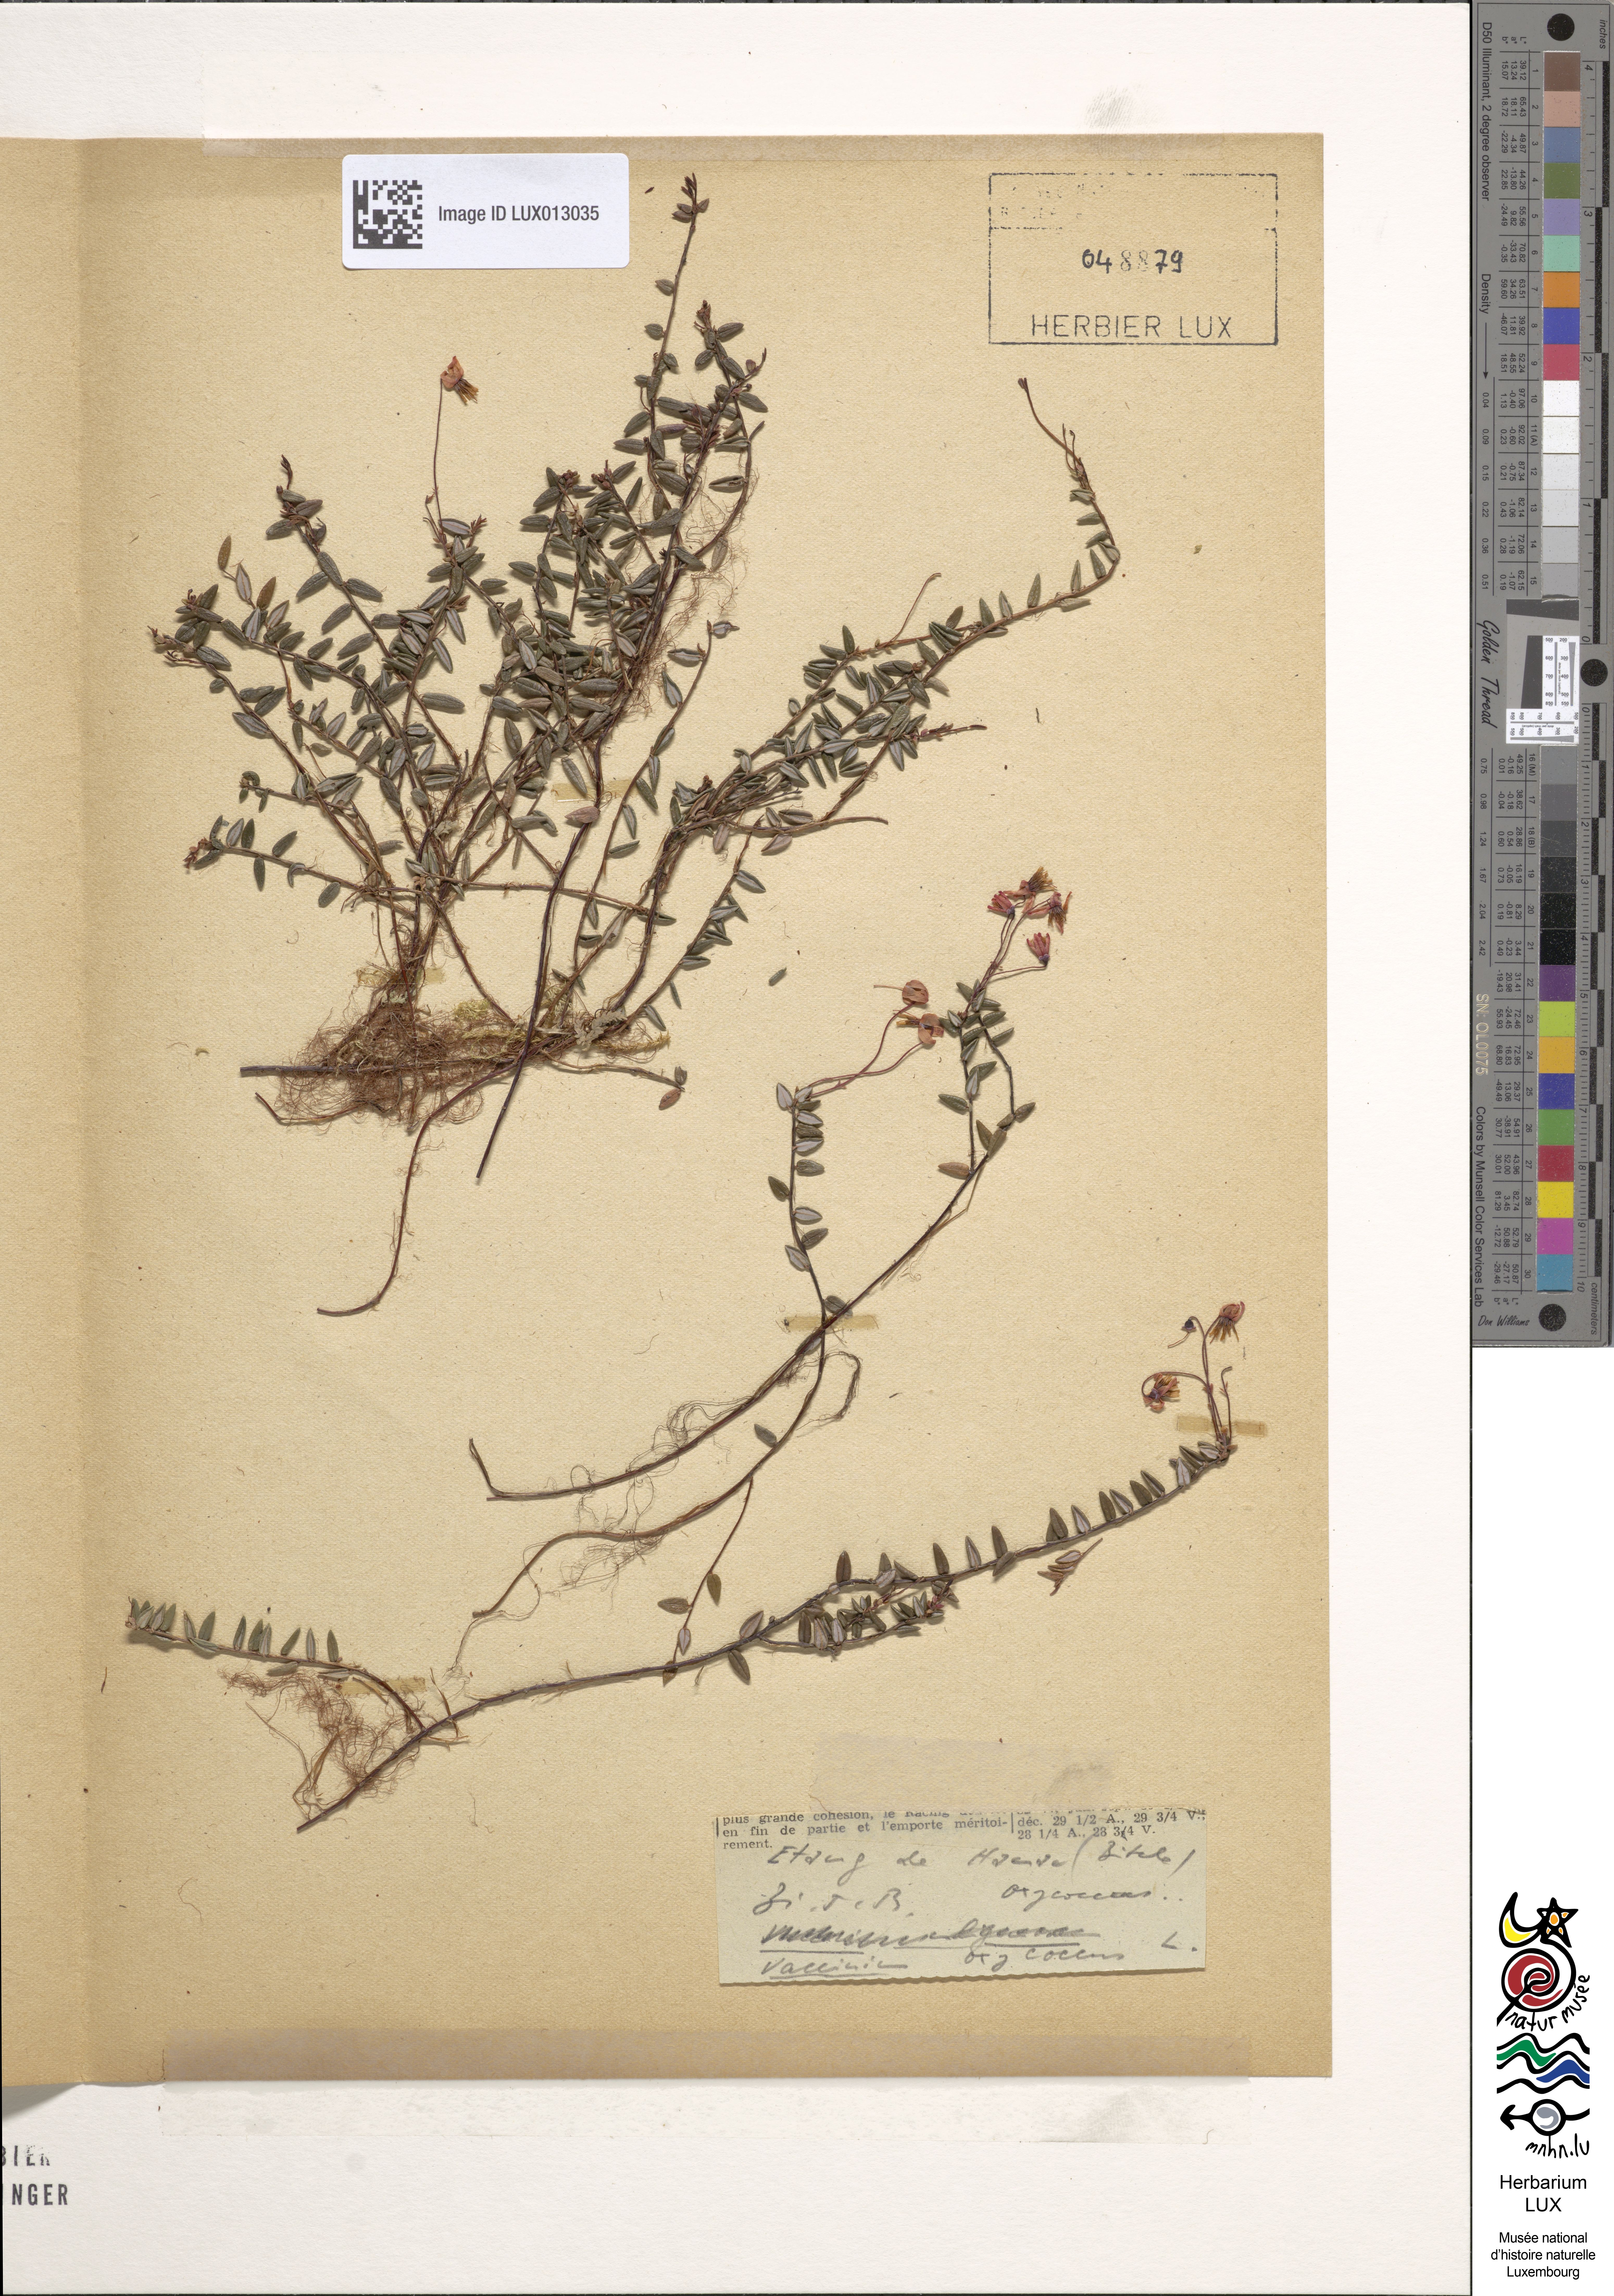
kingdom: Plantae
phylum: Tracheophyta
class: Magnoliopsida
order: Ericales
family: Ericaceae
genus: Vaccinium
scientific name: Vaccinium oxycoccos
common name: Cranberry
